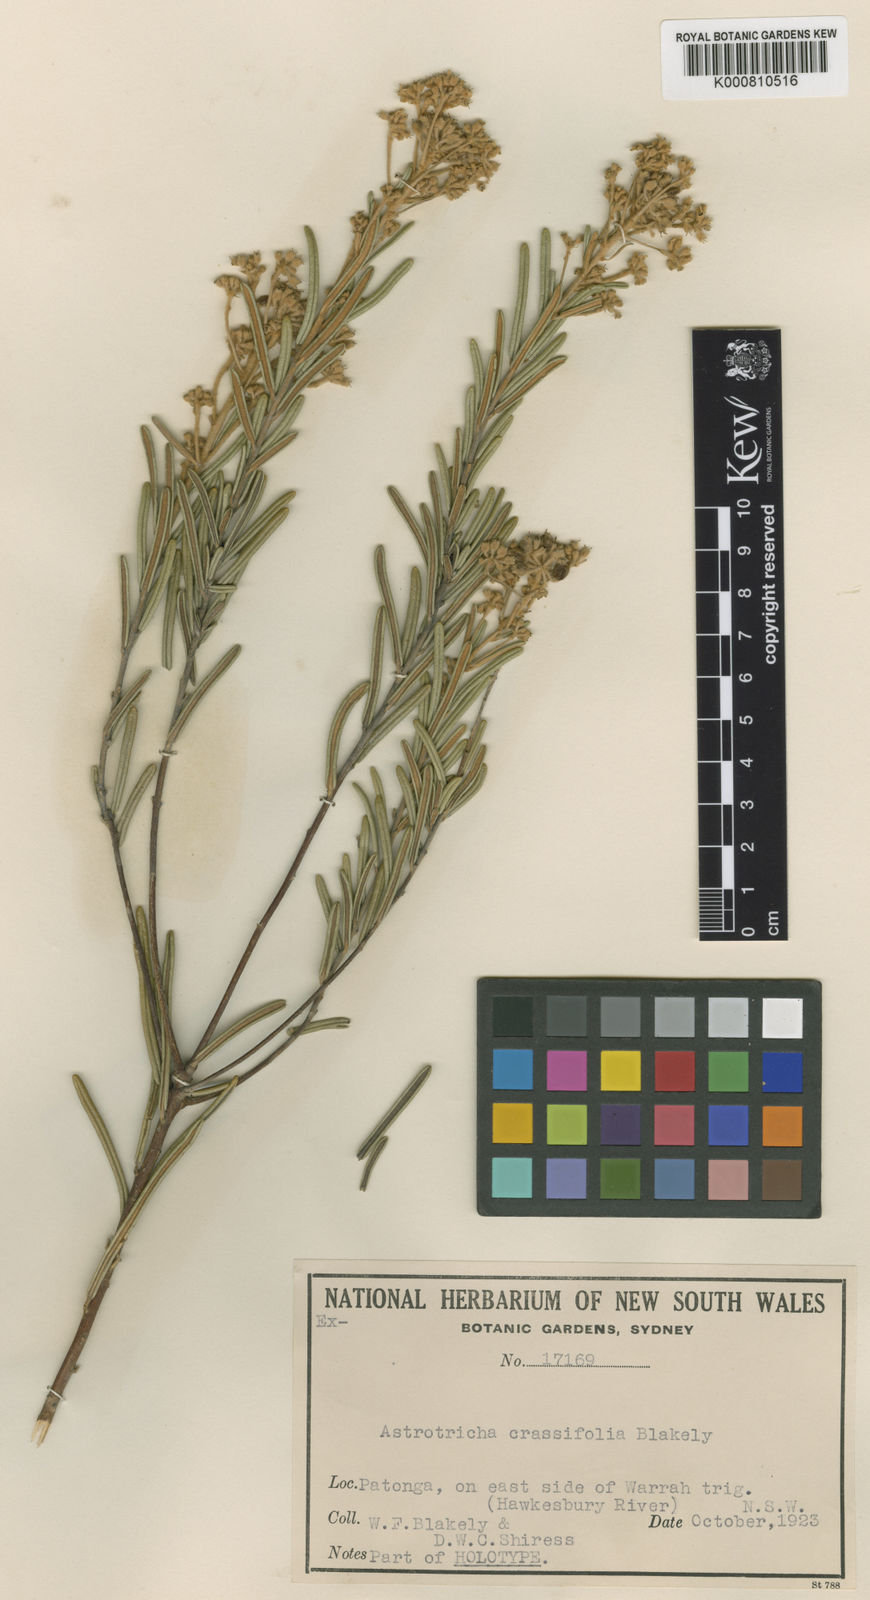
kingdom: Plantae
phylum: Tracheophyta
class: Magnoliopsida
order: Apiales
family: Araliaceae
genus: Astrotricha
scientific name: Astrotricha crassifolia
